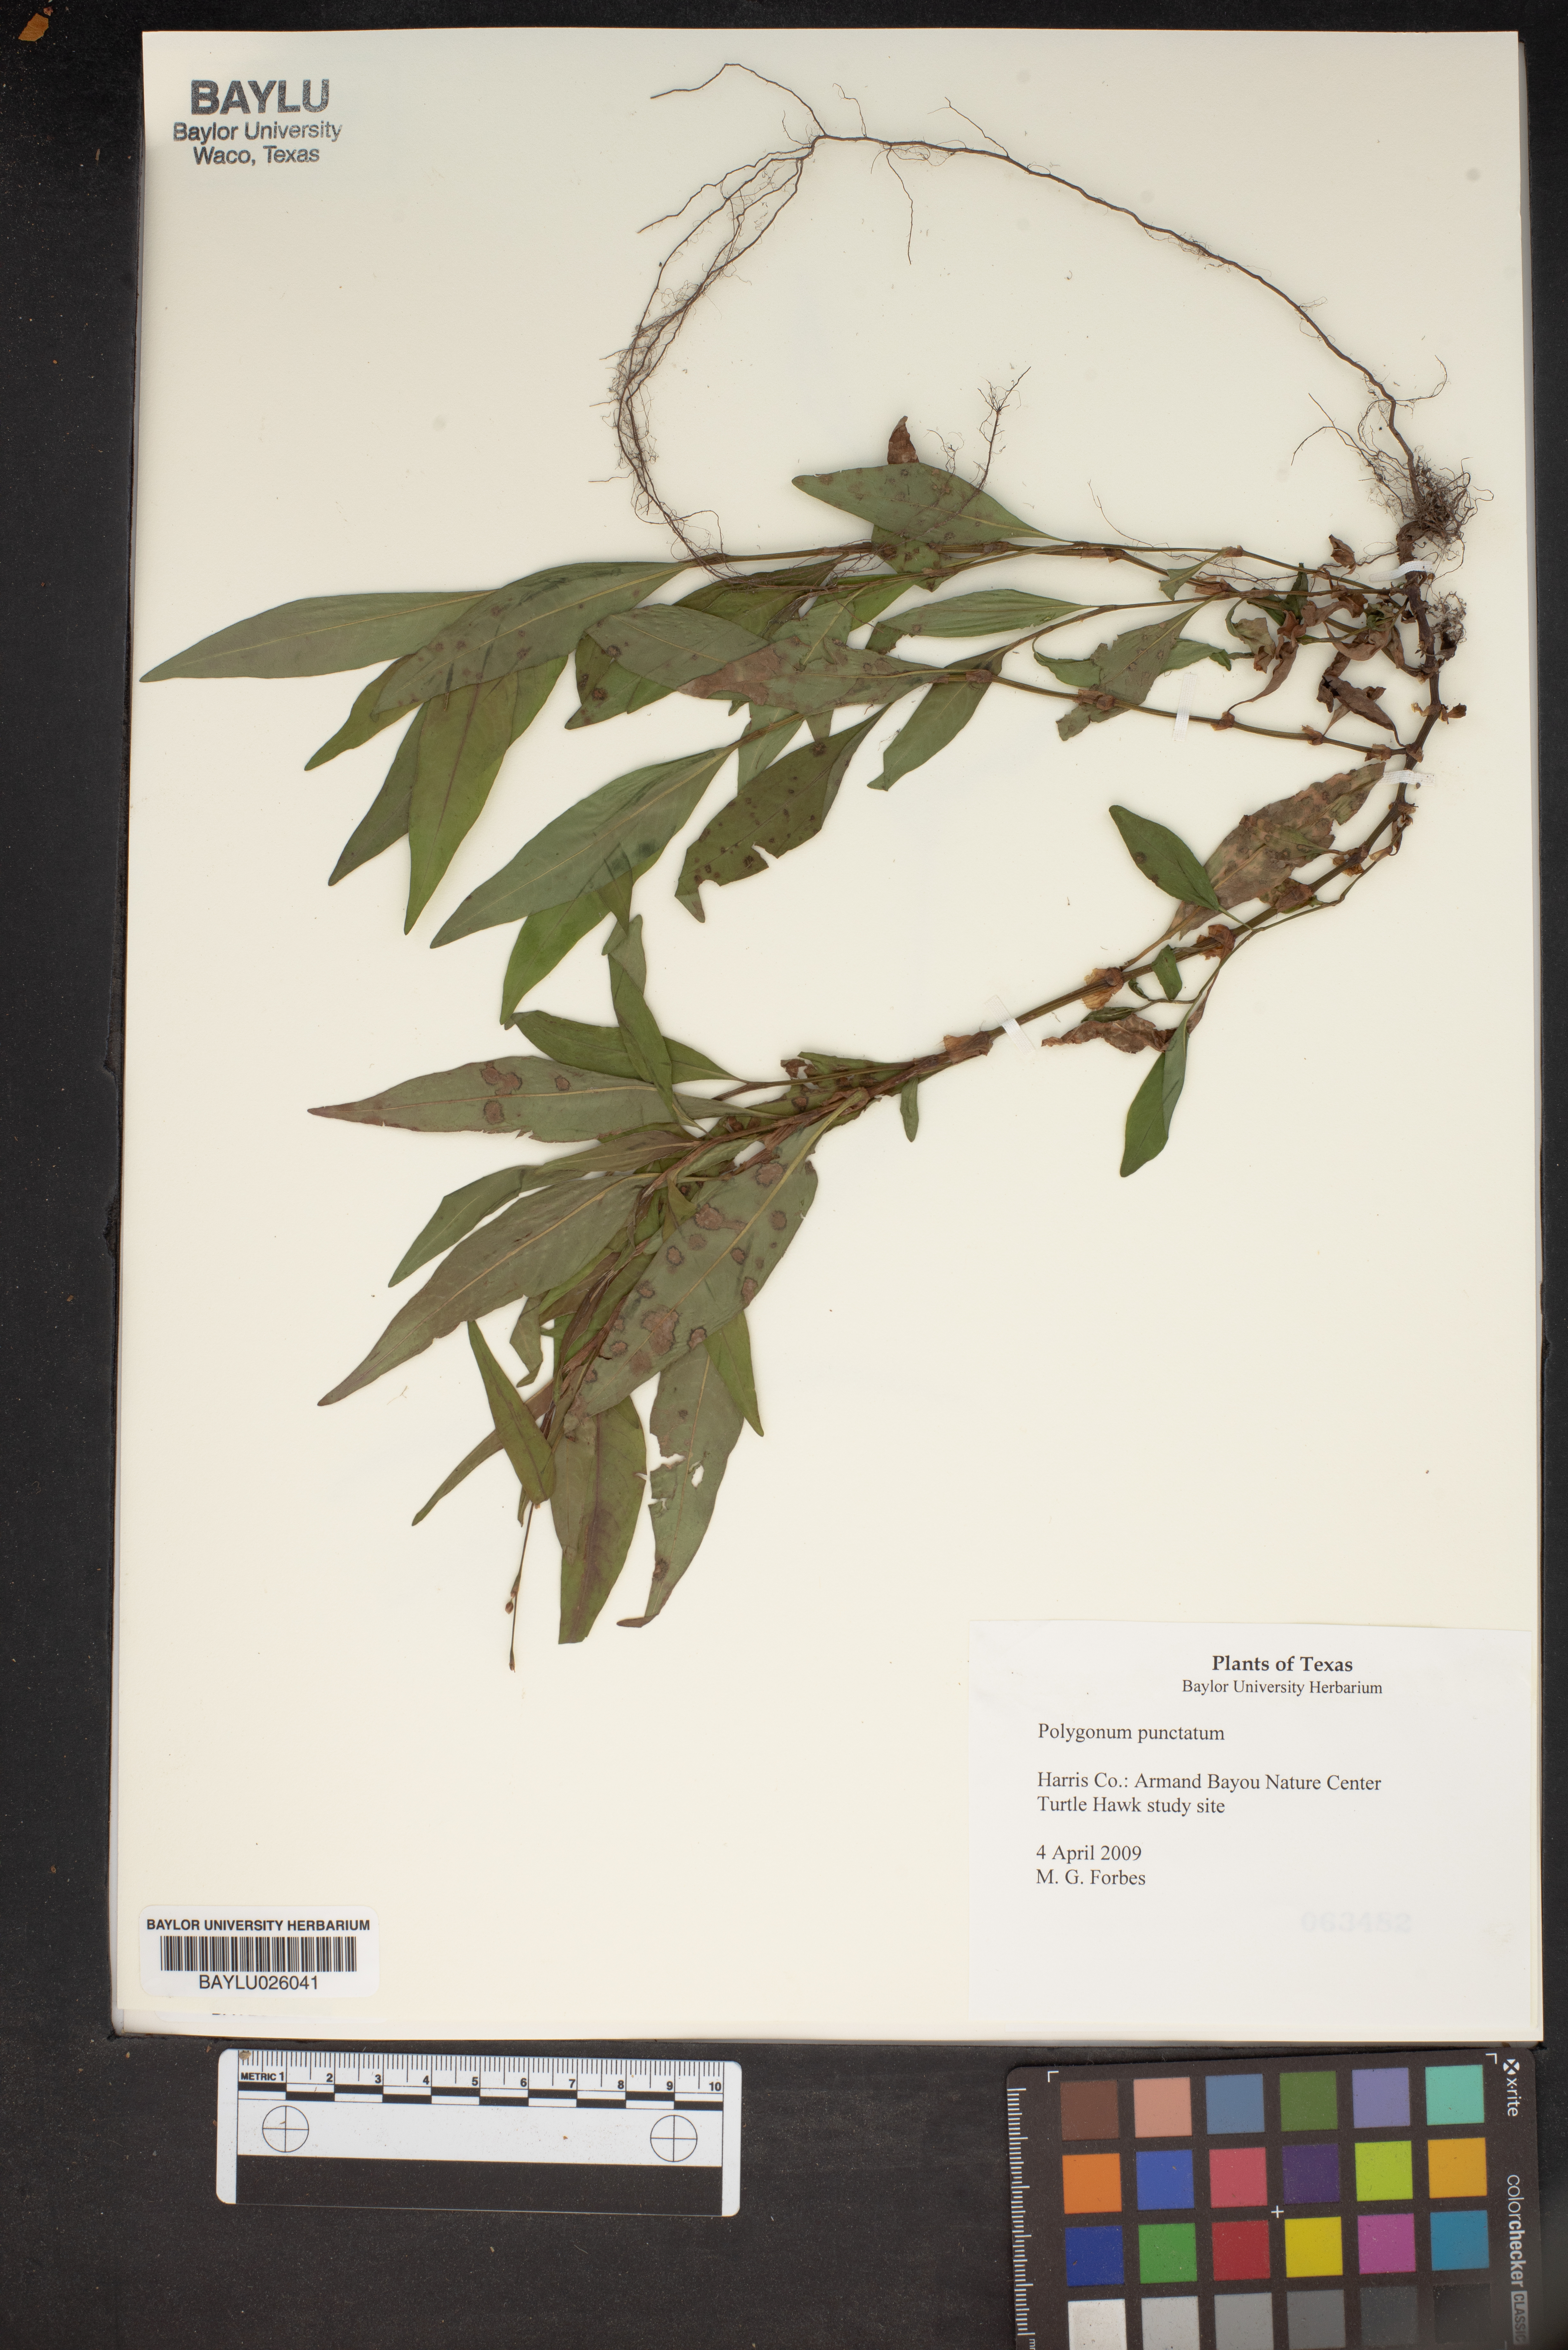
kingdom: Plantae
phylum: Tracheophyta
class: Liliopsida
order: Asparagales
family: Asparagaceae
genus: Polygonatum
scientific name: Polygonatum punctatum
